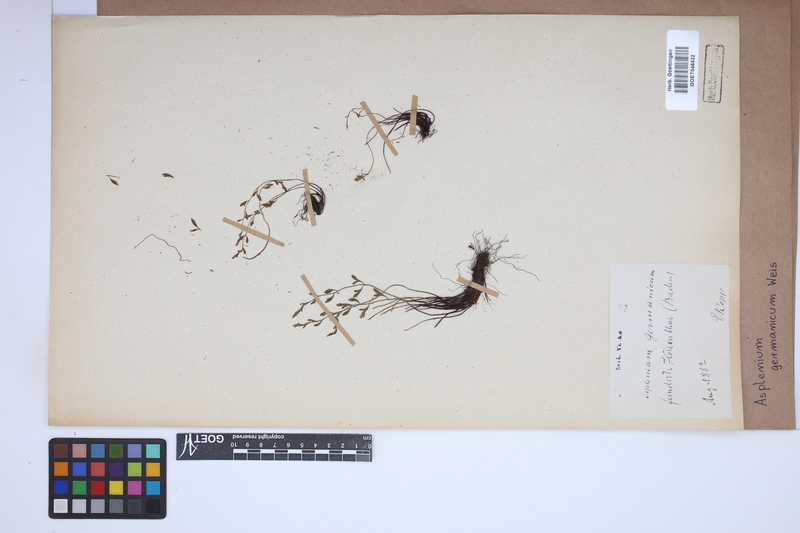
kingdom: Plantae
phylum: Tracheophyta
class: Polypodiopsida
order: Polypodiales
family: Aspleniaceae
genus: Asplenium
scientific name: Asplenium
